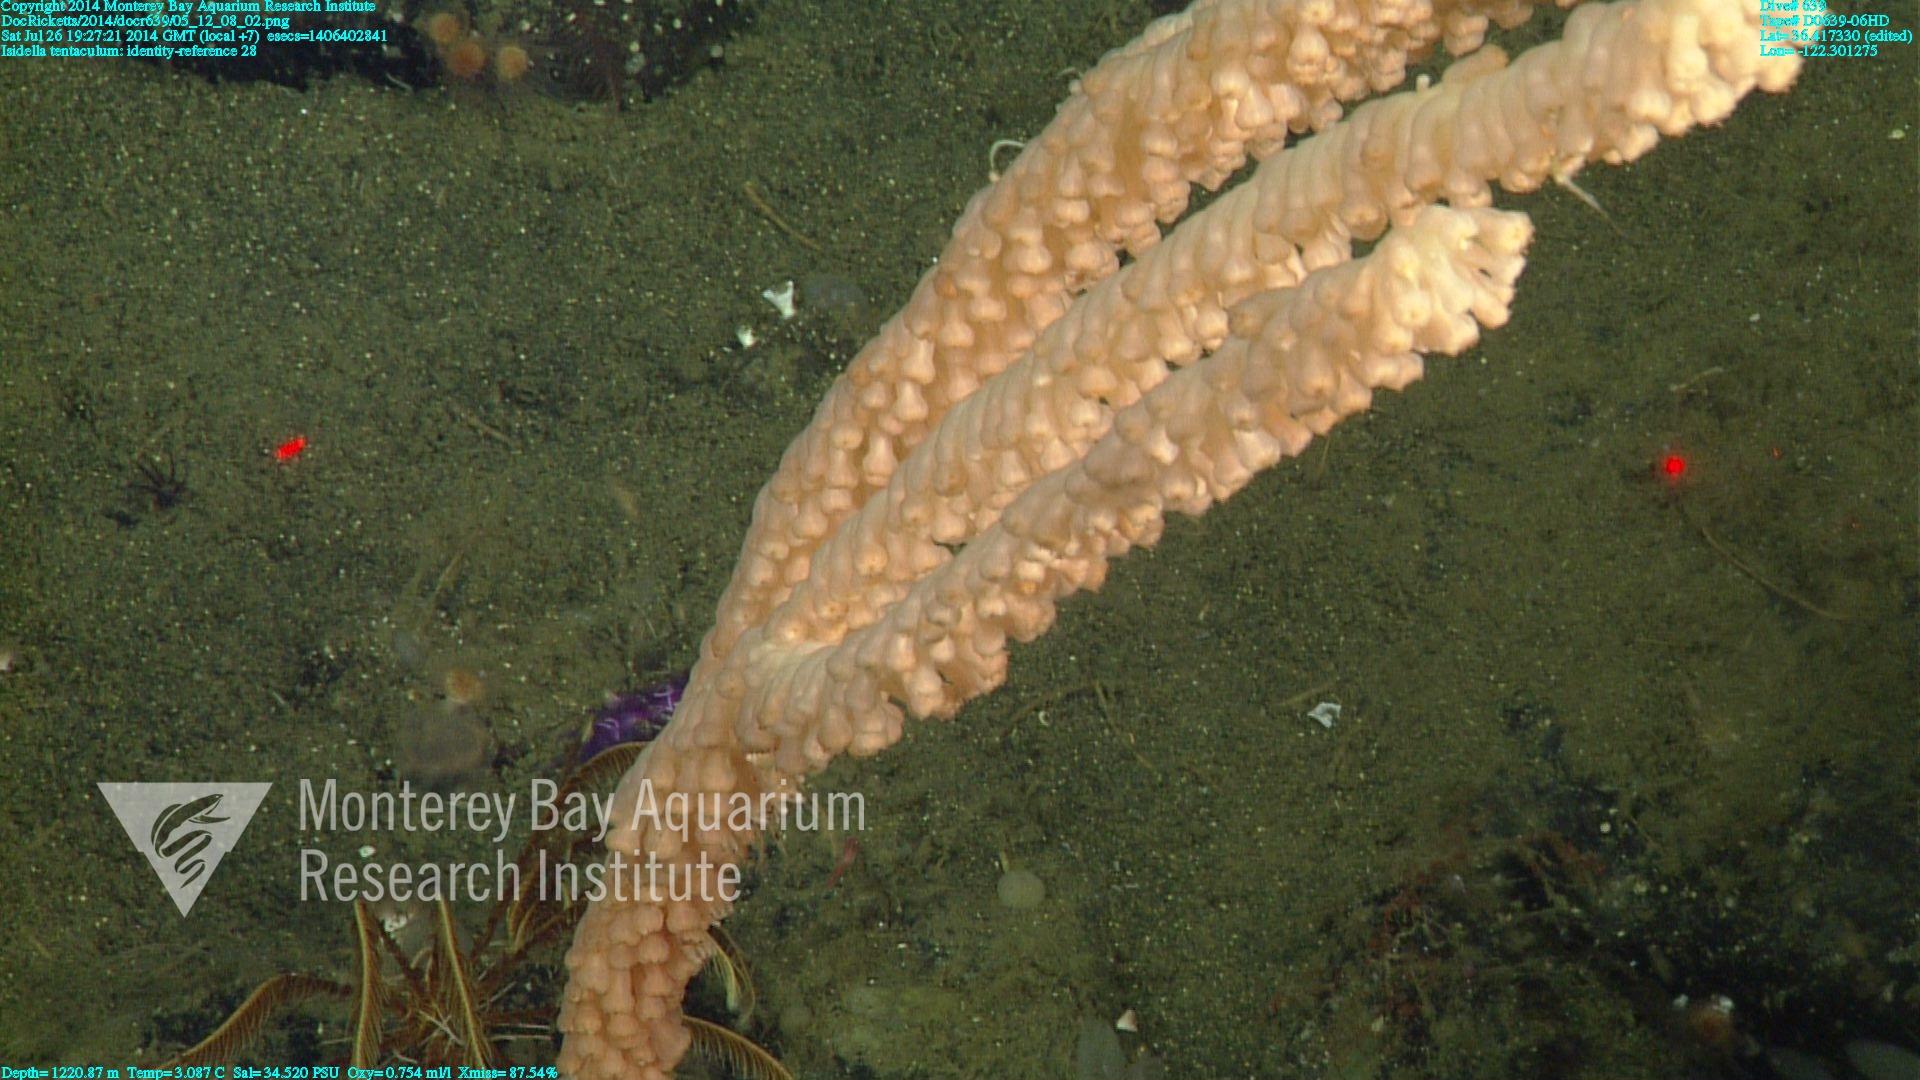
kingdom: Animalia
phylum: Cnidaria
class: Anthozoa
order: Scleralcyonacea
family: Keratoisididae
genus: Isidella
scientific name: Isidella tentaculum
